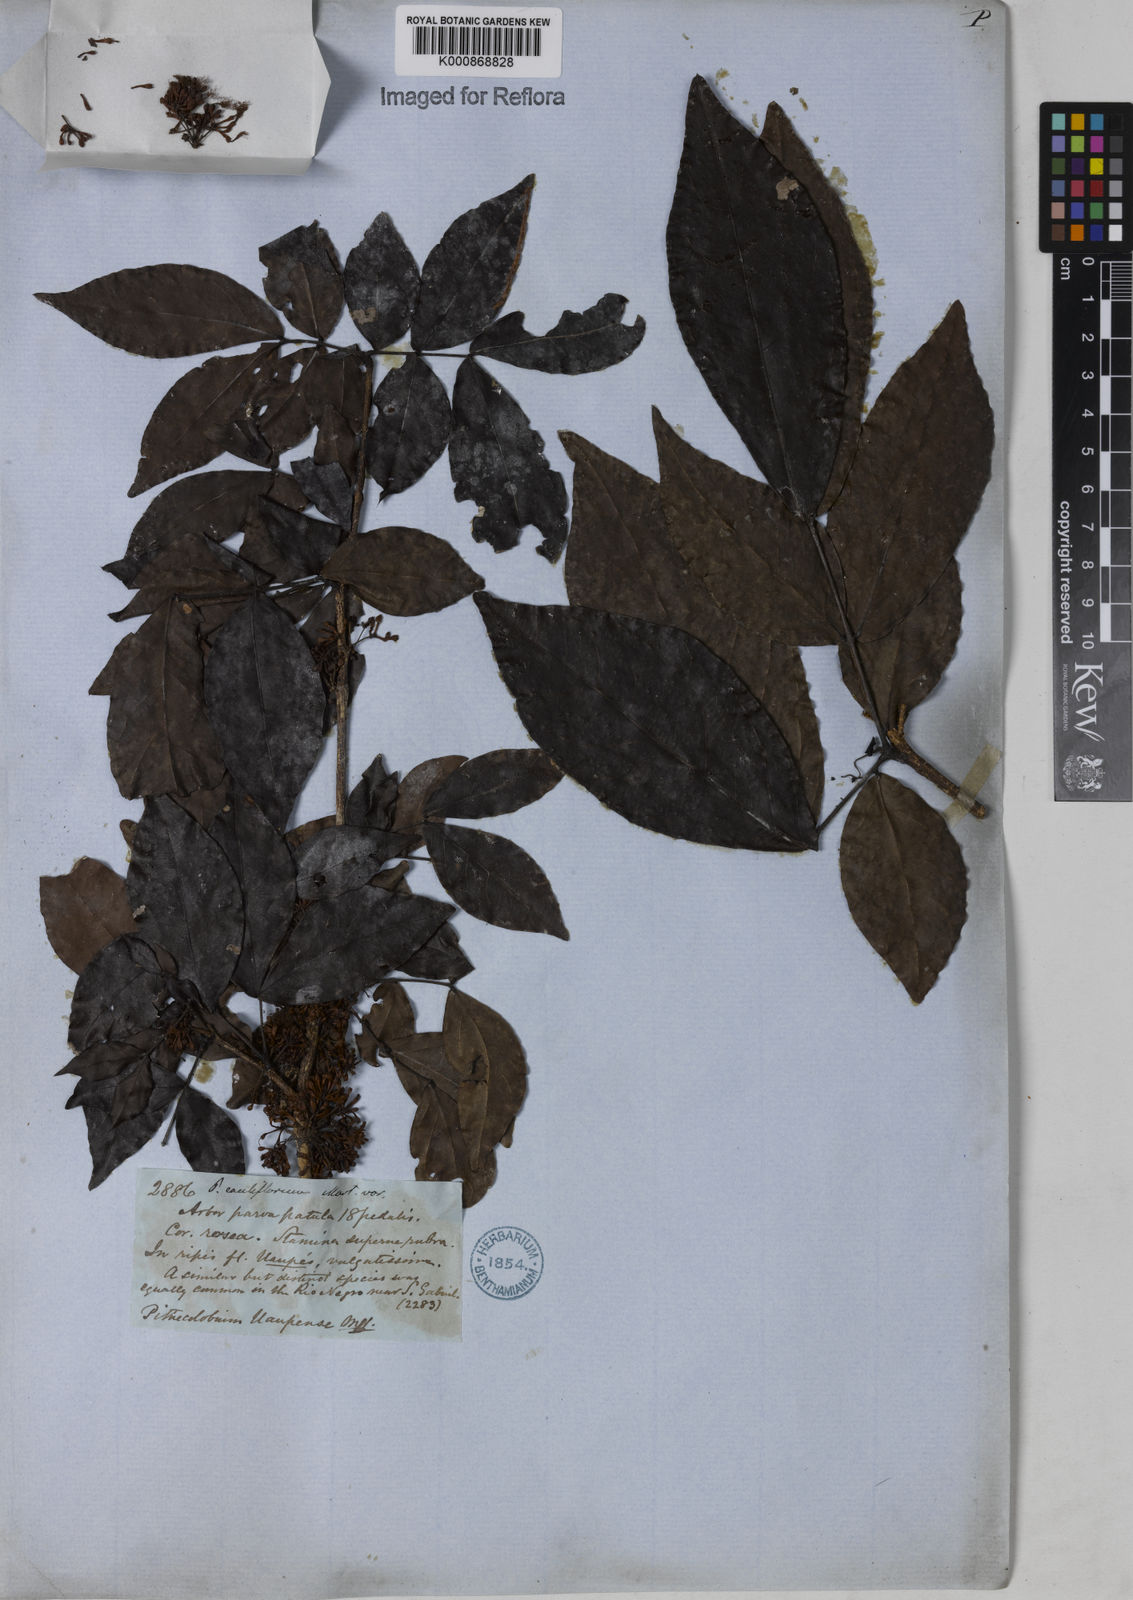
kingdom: Plantae
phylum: Tracheophyta
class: Magnoliopsida
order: Fabales
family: Fabaceae
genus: Zygia
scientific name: Zygia
